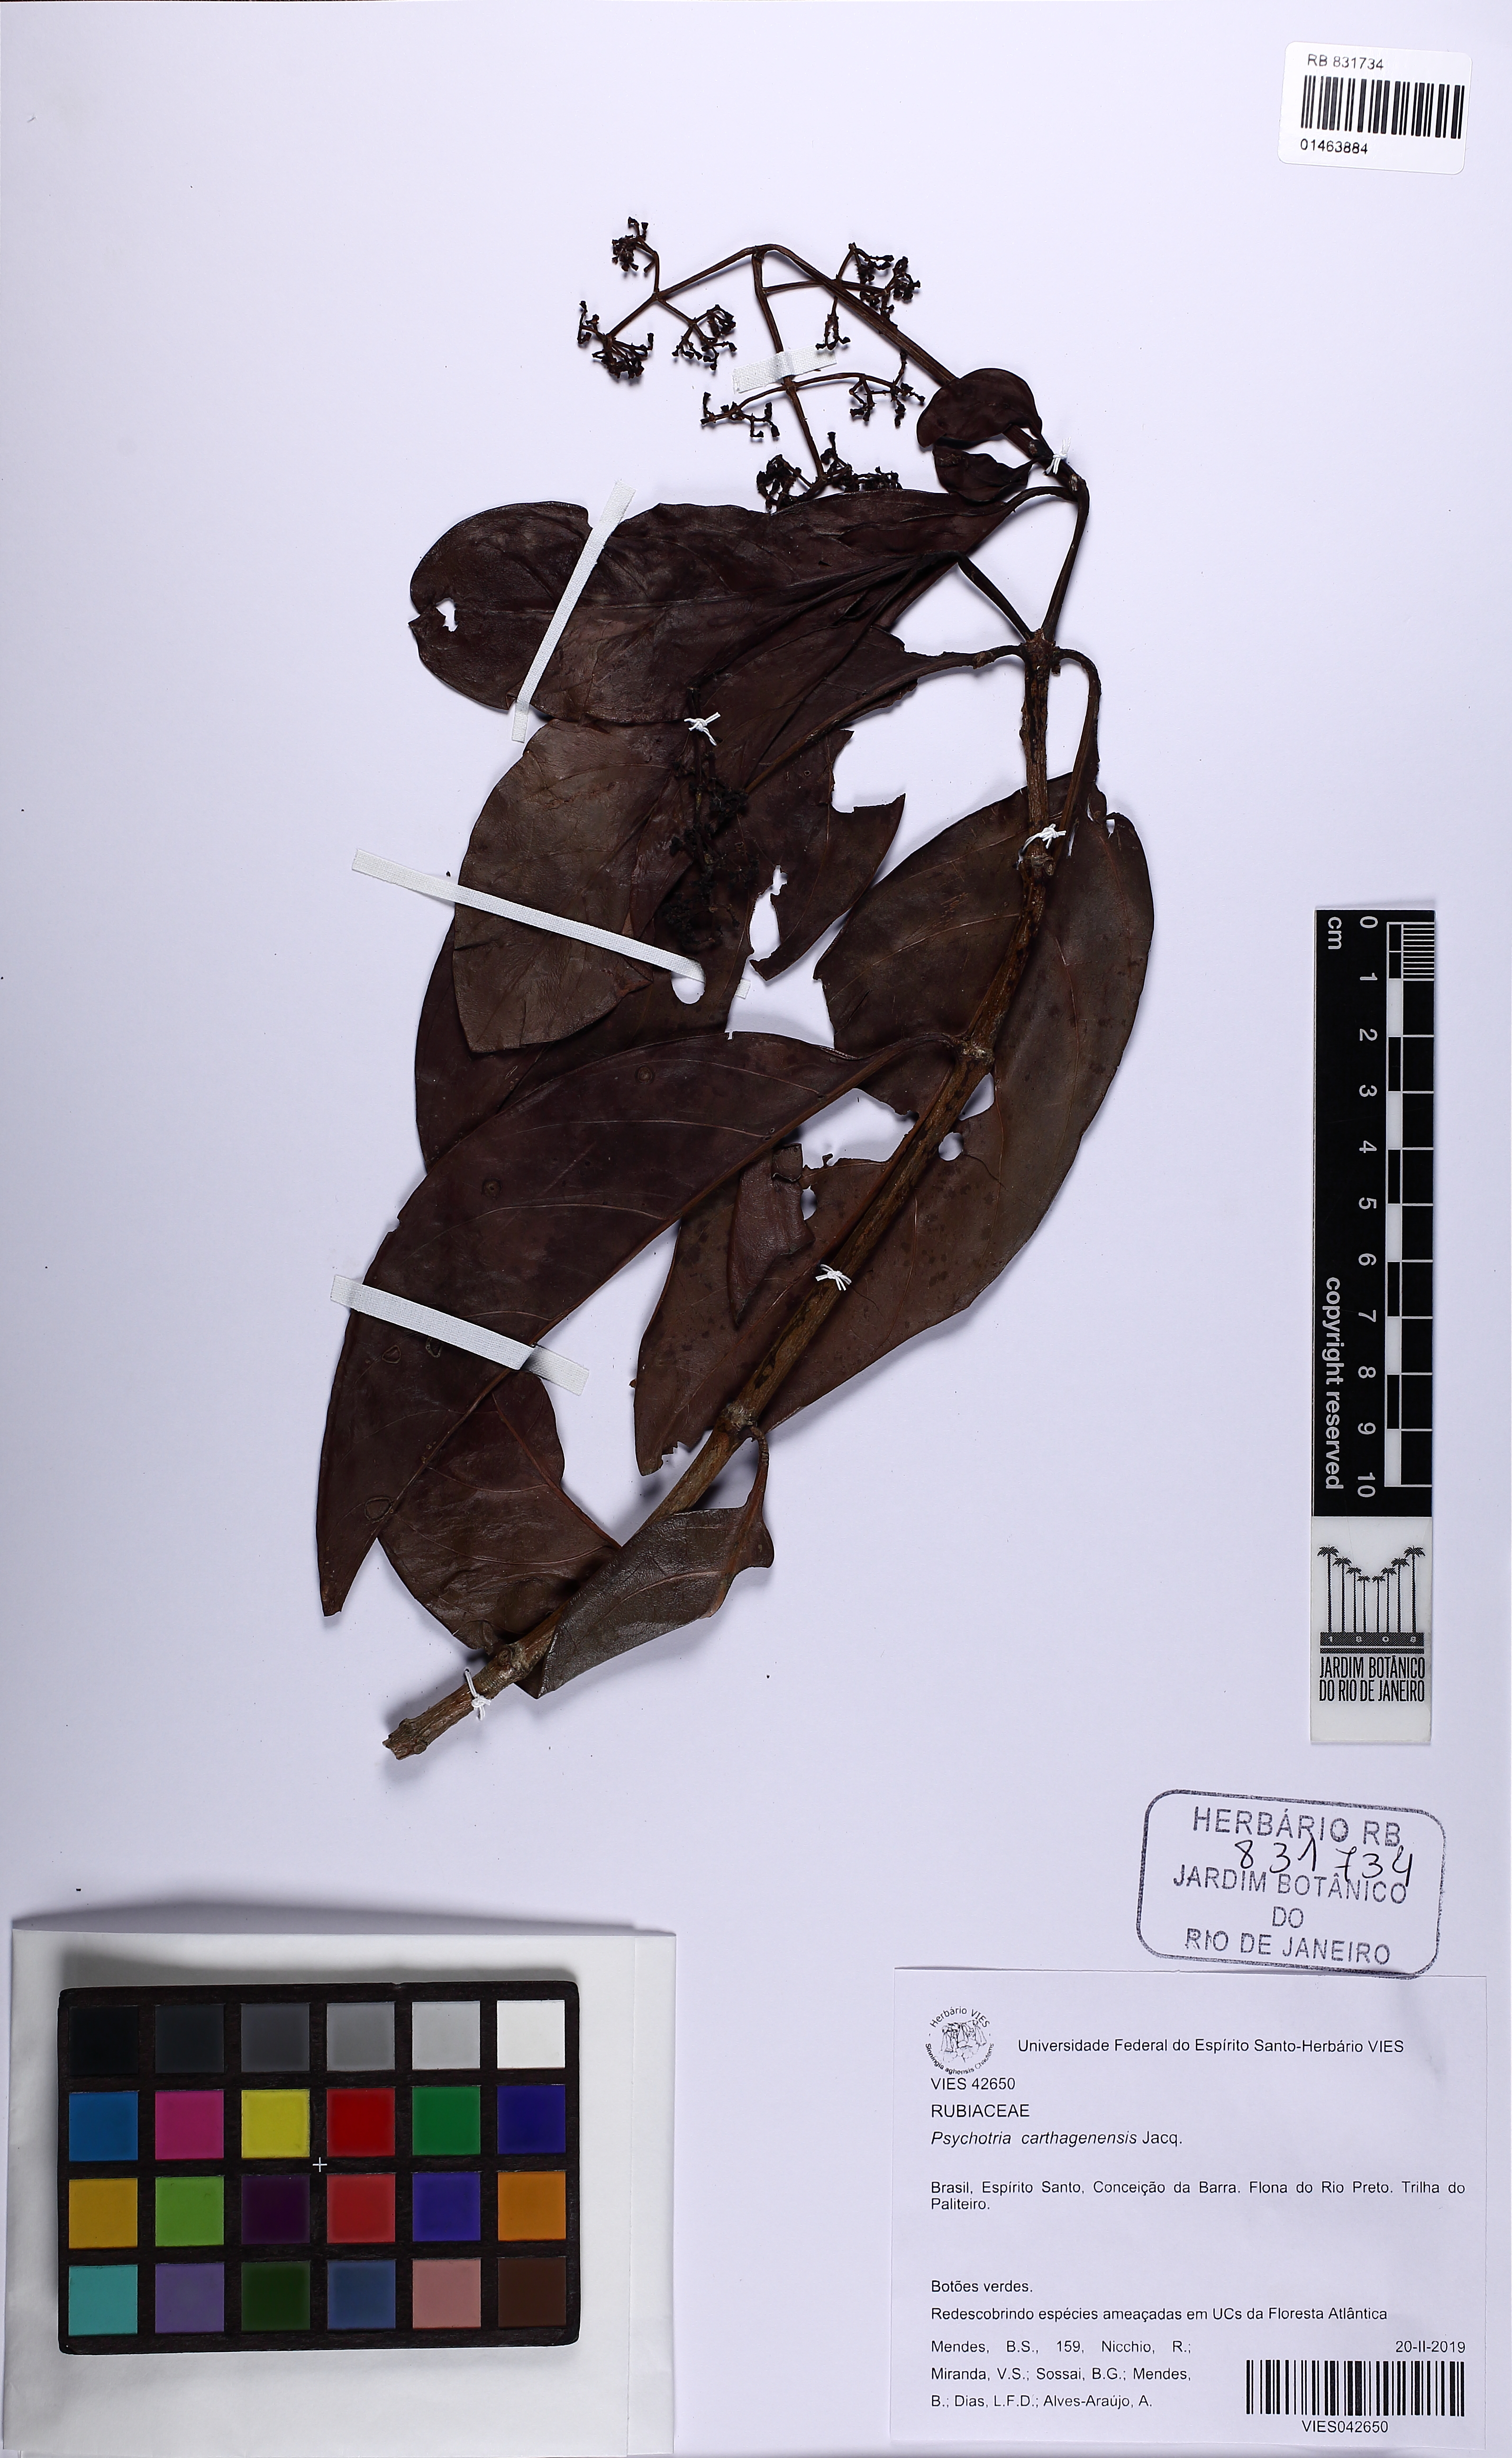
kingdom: Plantae
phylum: Tracheophyta
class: Magnoliopsida
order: Gentianales
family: Rubiaceae
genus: Psychotria
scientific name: Psychotria carthagenensis
